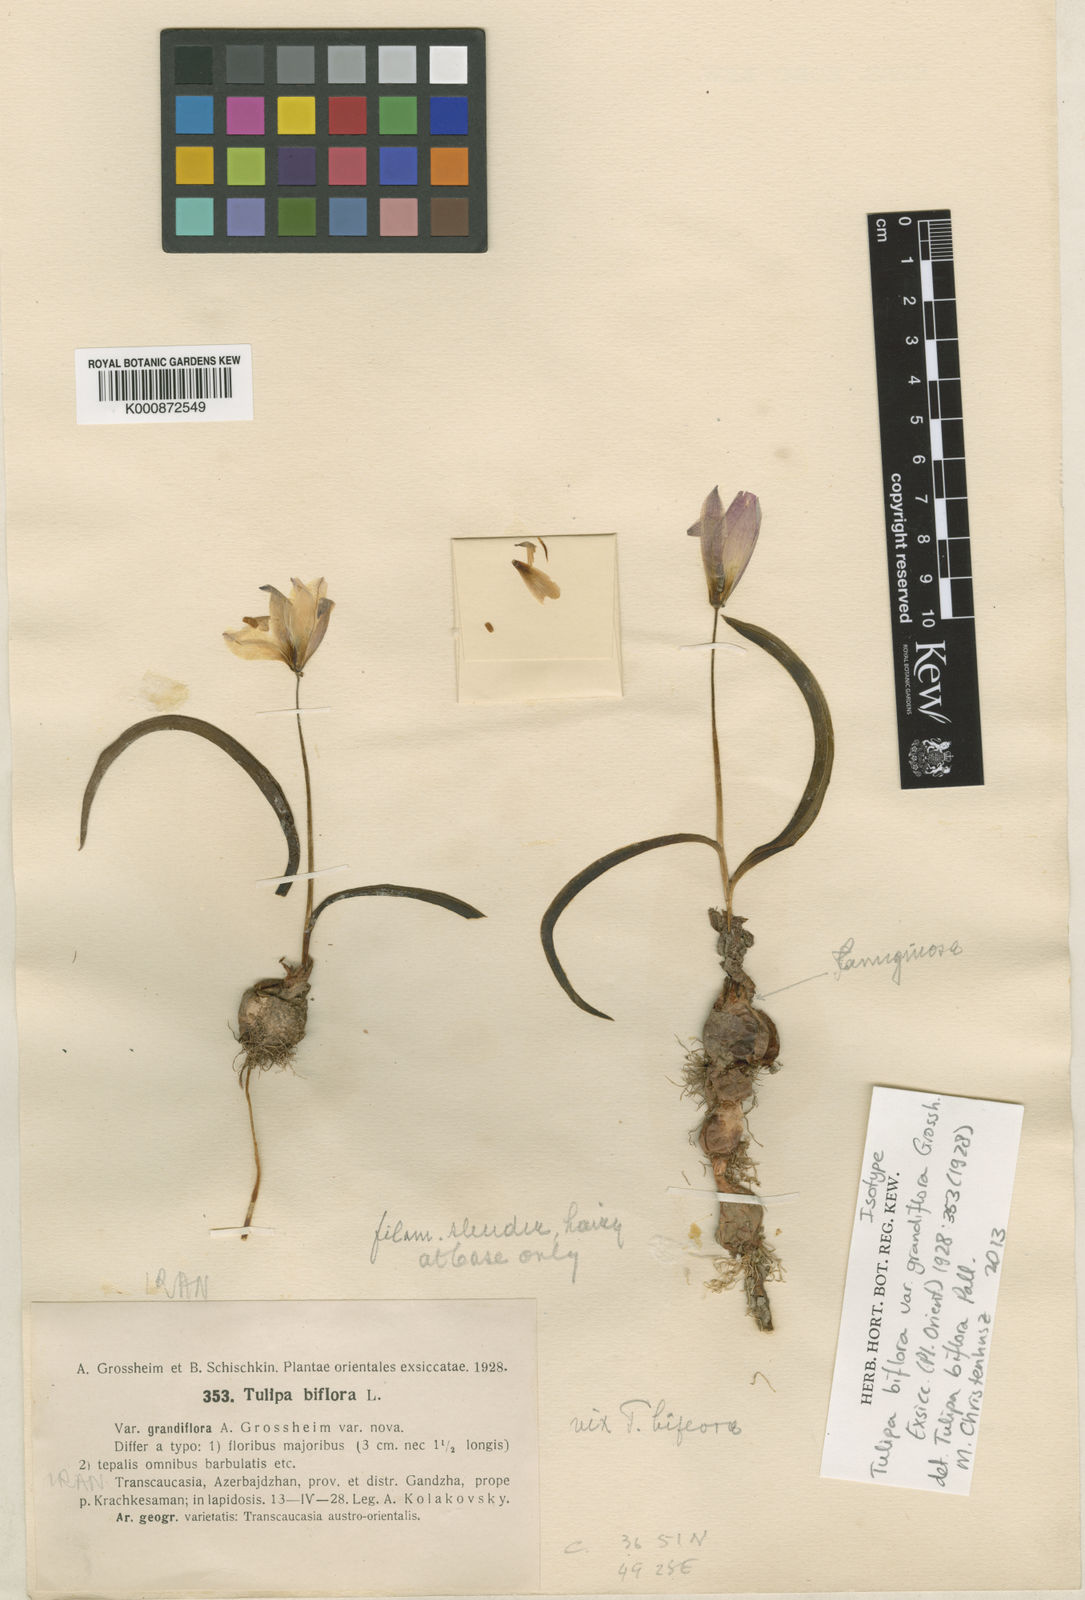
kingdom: Plantae
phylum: Tracheophyta
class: Liliopsida
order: Liliales
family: Liliaceae
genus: Tulipa
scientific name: Tulipa biflora
